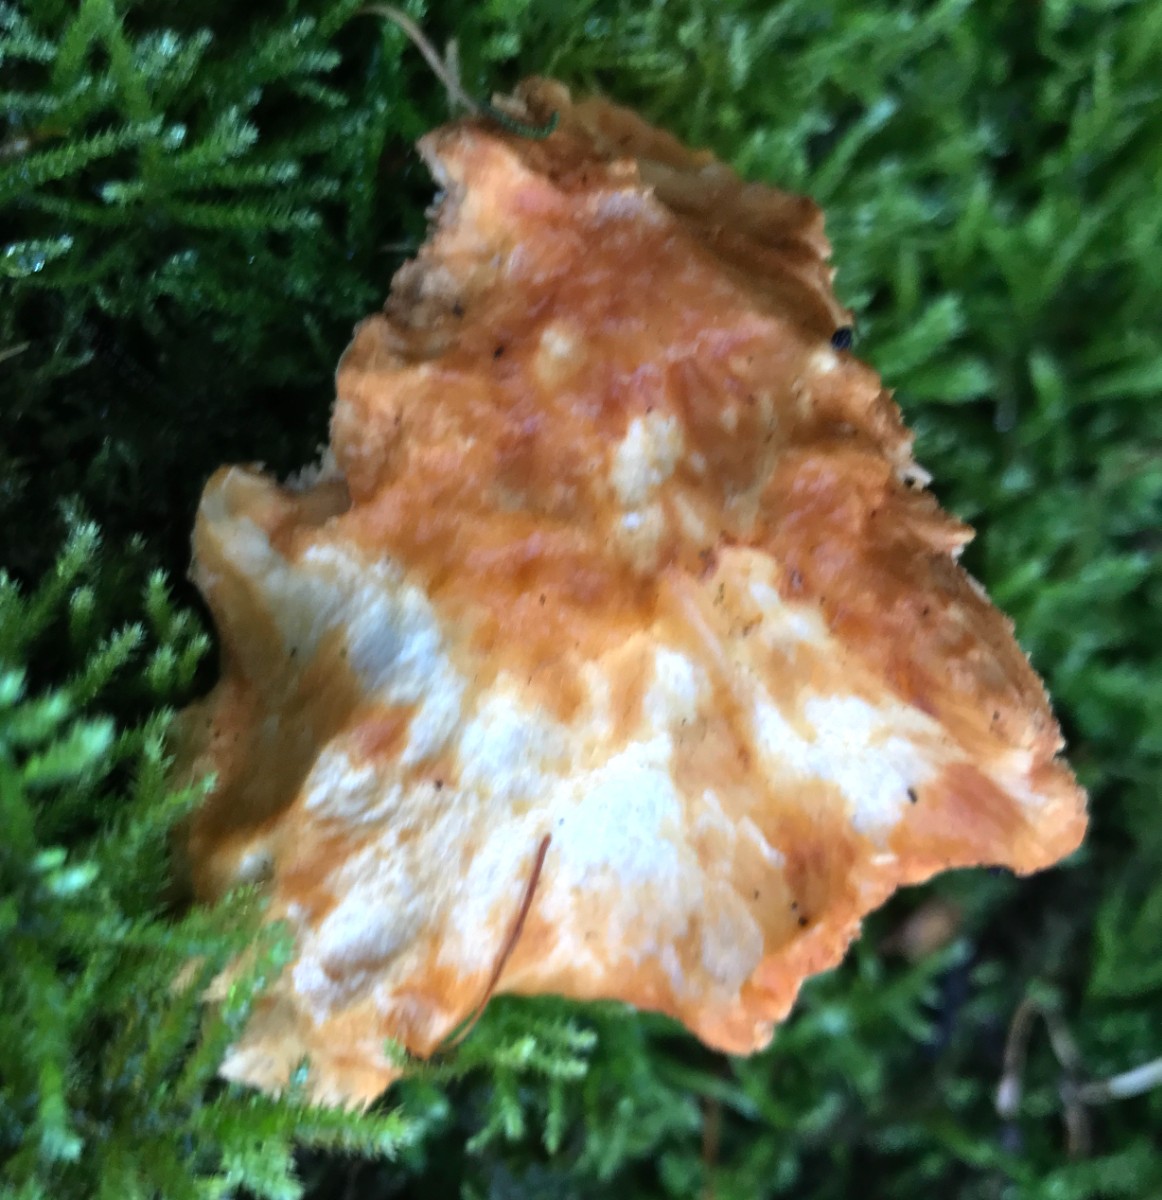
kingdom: Fungi
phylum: Basidiomycota
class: Agaricomycetes
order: Cantharellales
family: Hydnaceae
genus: Hydnum
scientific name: Hydnum rufescens
